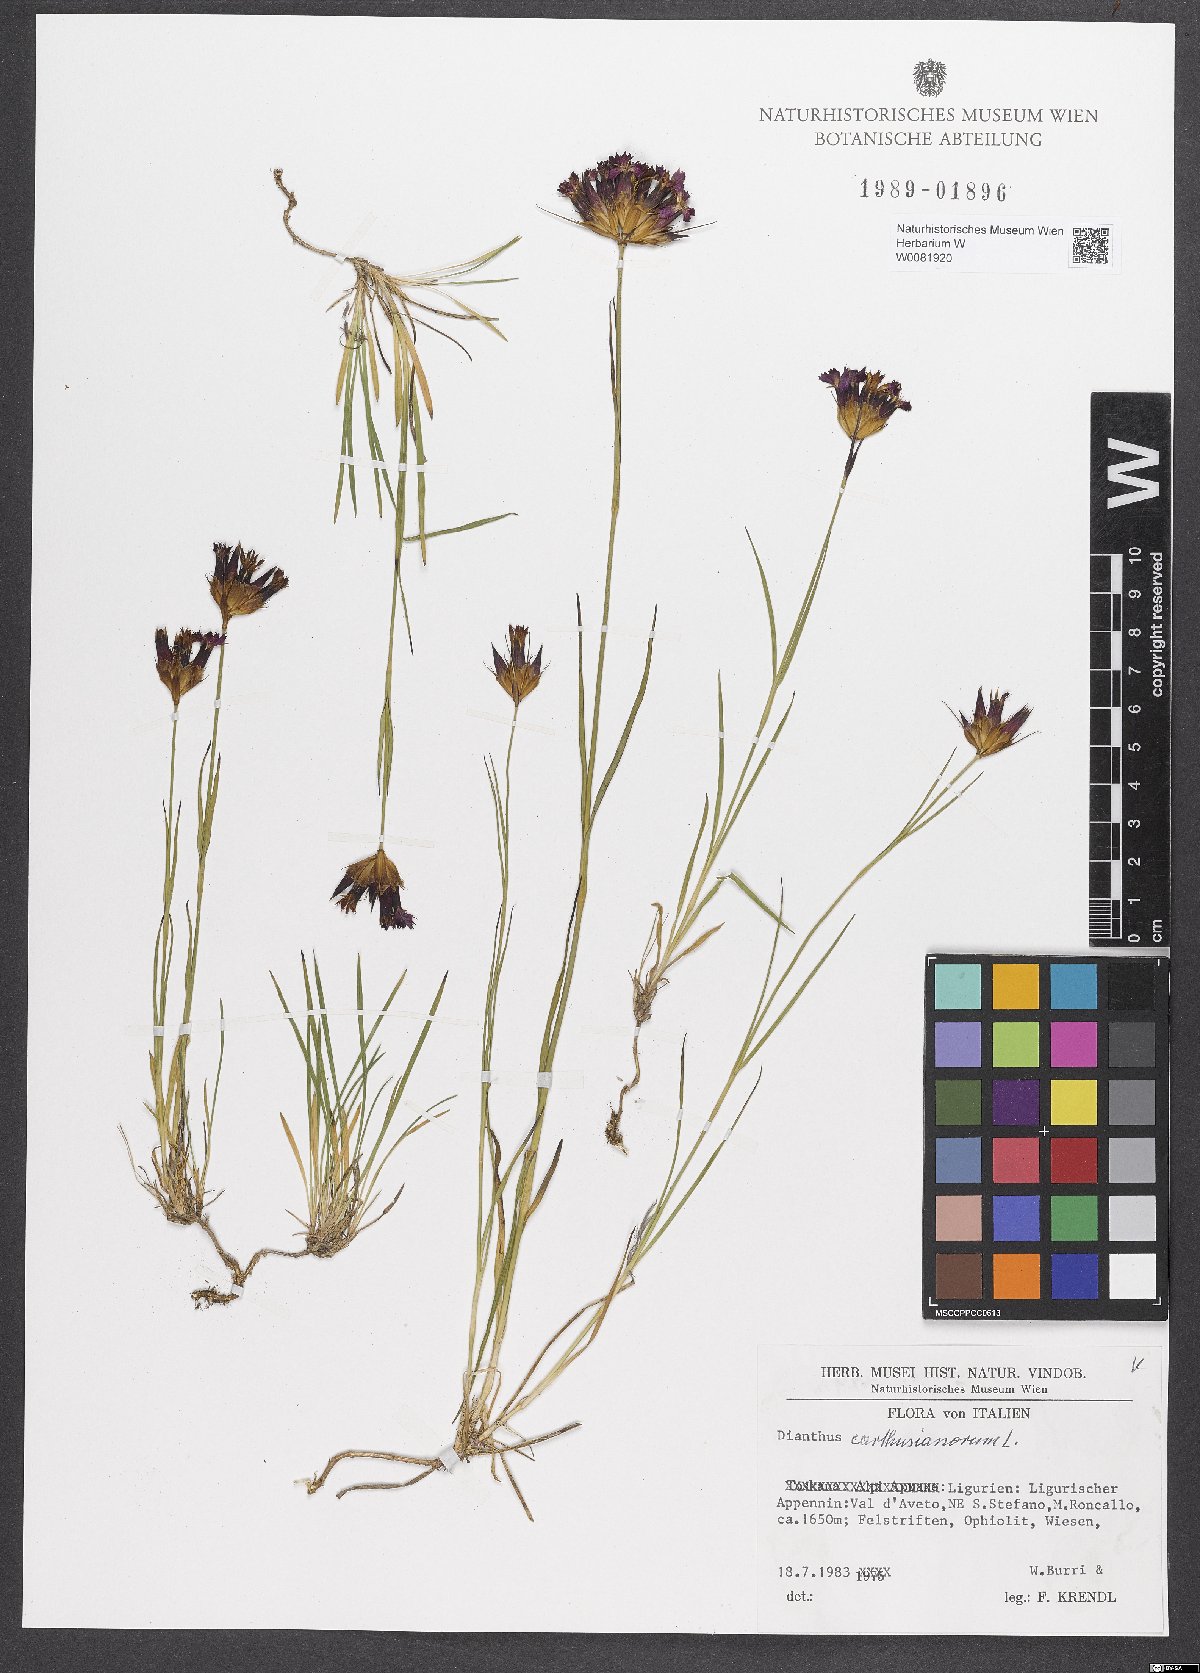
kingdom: Plantae
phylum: Tracheophyta
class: Magnoliopsida
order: Caryophyllales
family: Caryophyllaceae
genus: Dianthus
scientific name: Dianthus carthusianorum
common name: Carthusian pink
